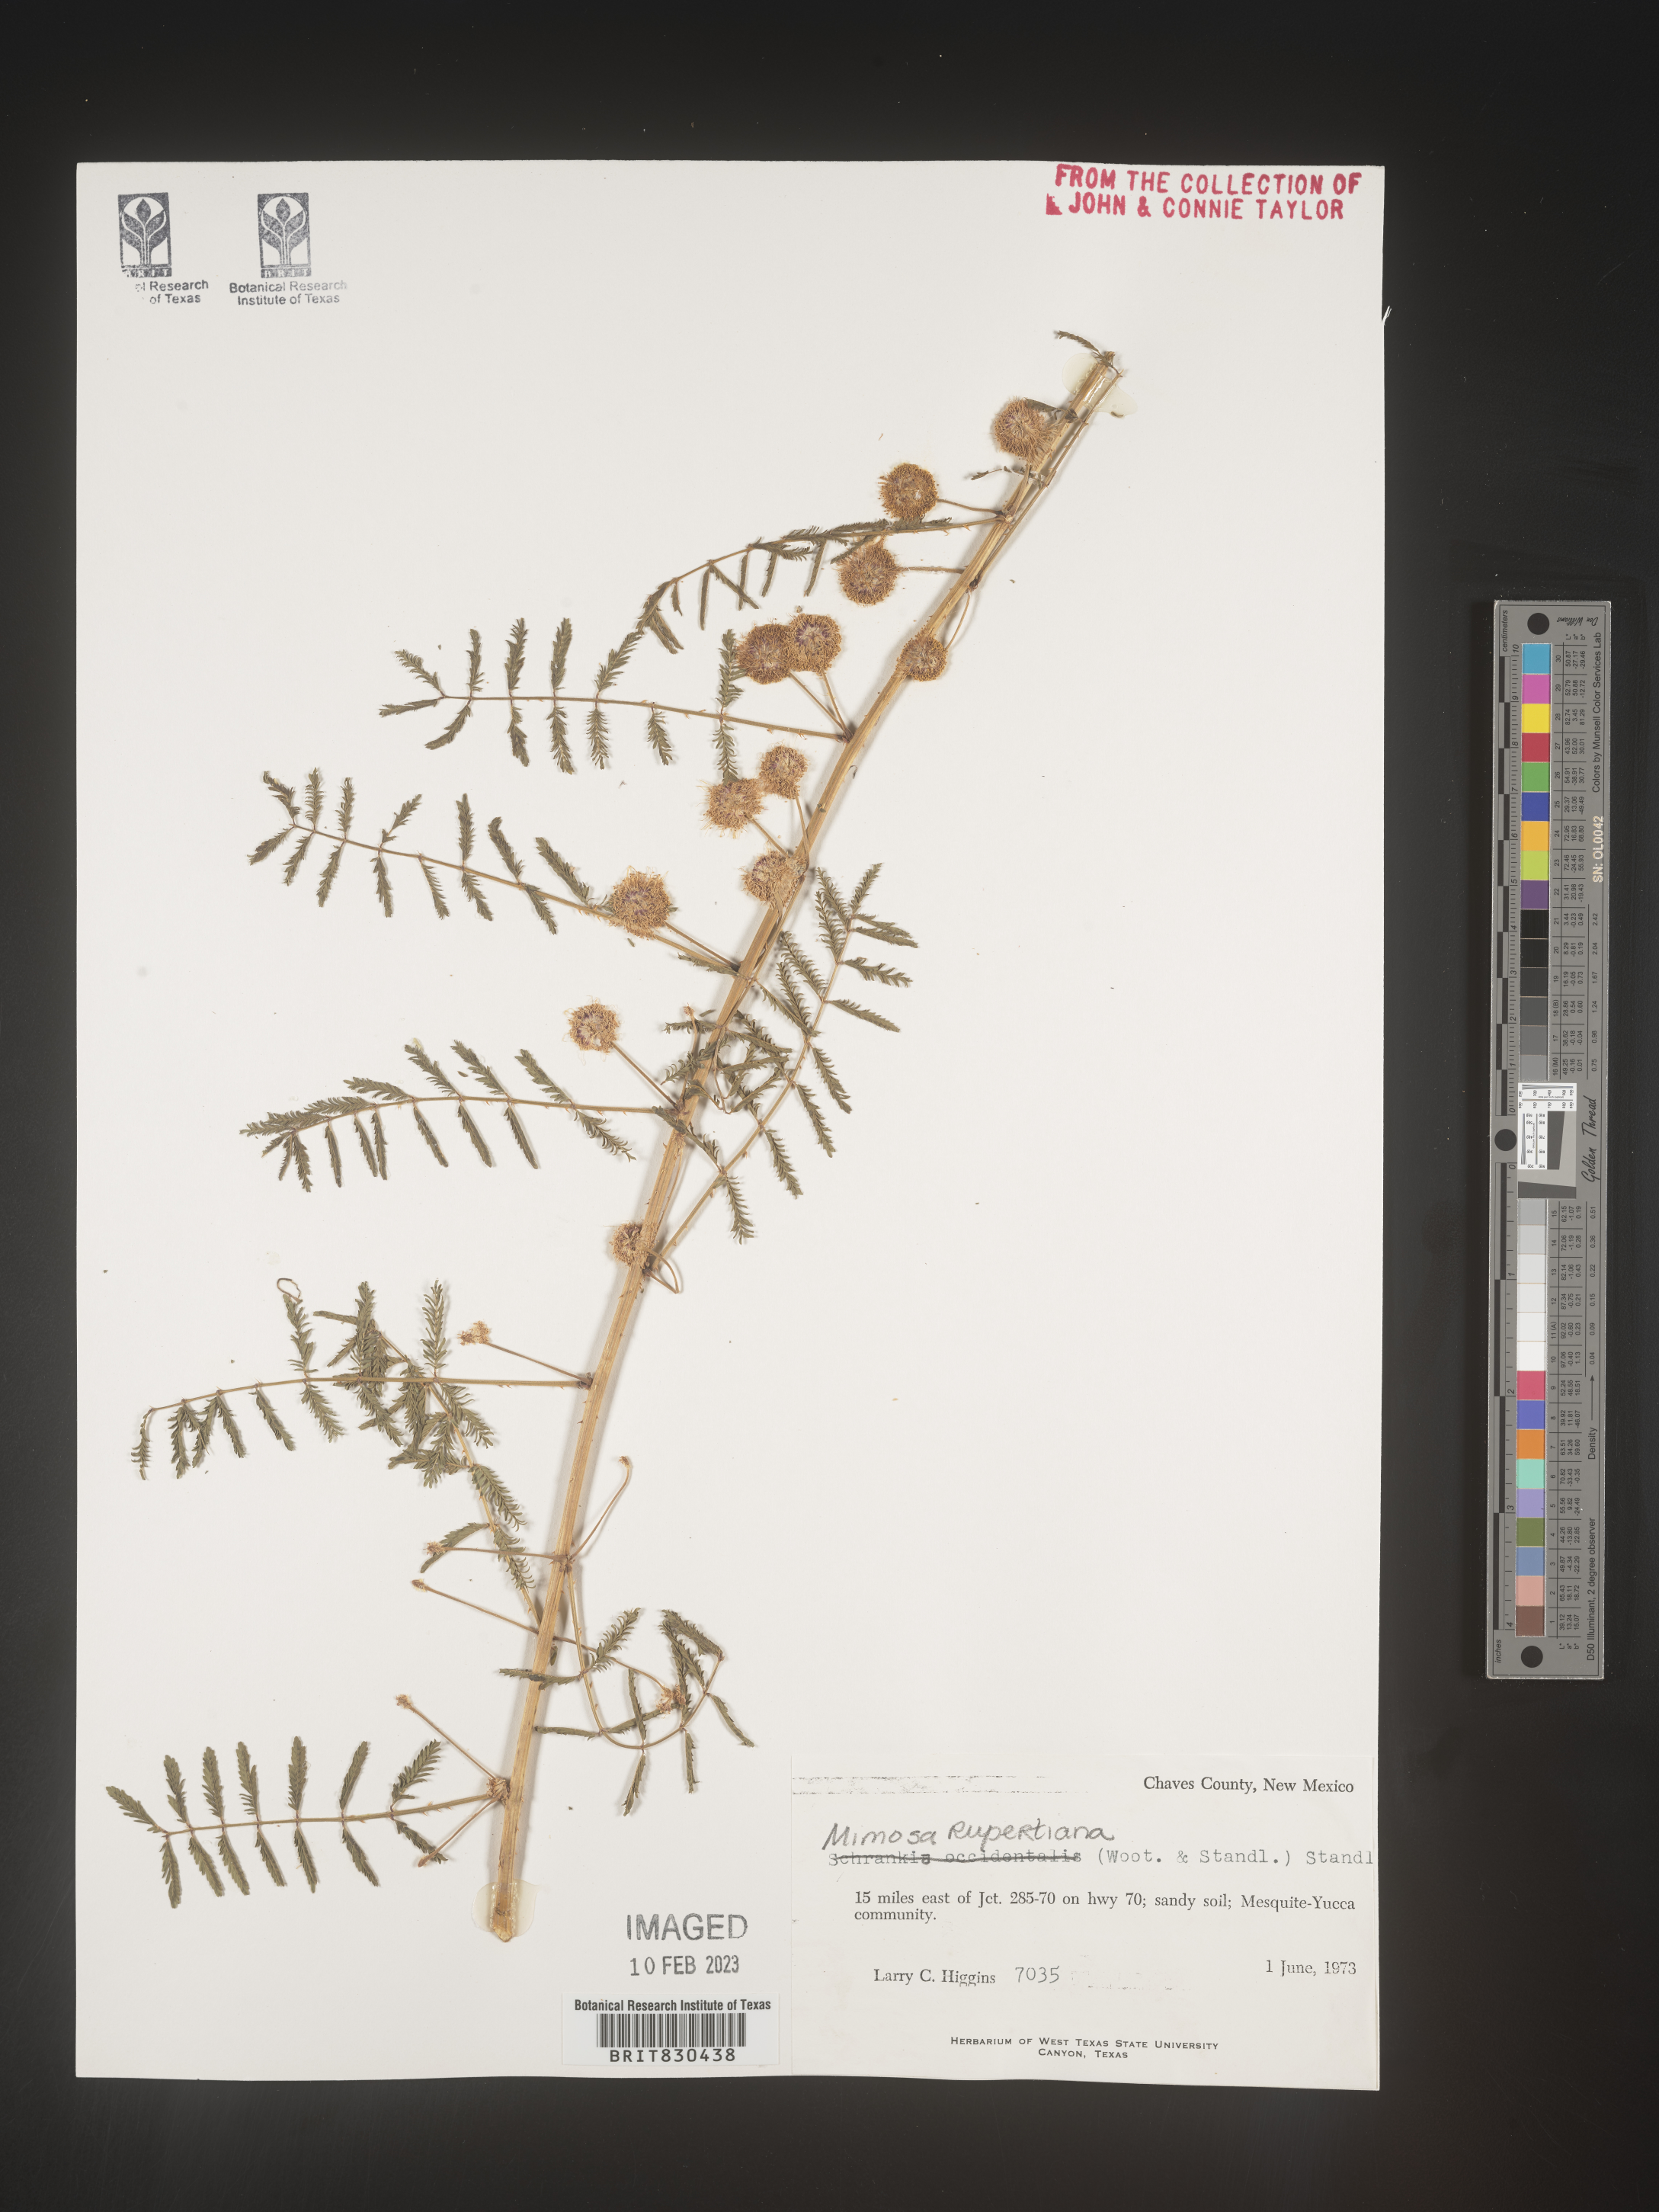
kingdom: Plantae
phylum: Tracheophyta
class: Magnoliopsida
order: Fabales
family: Fabaceae
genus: Mimosa
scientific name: Mimosa
